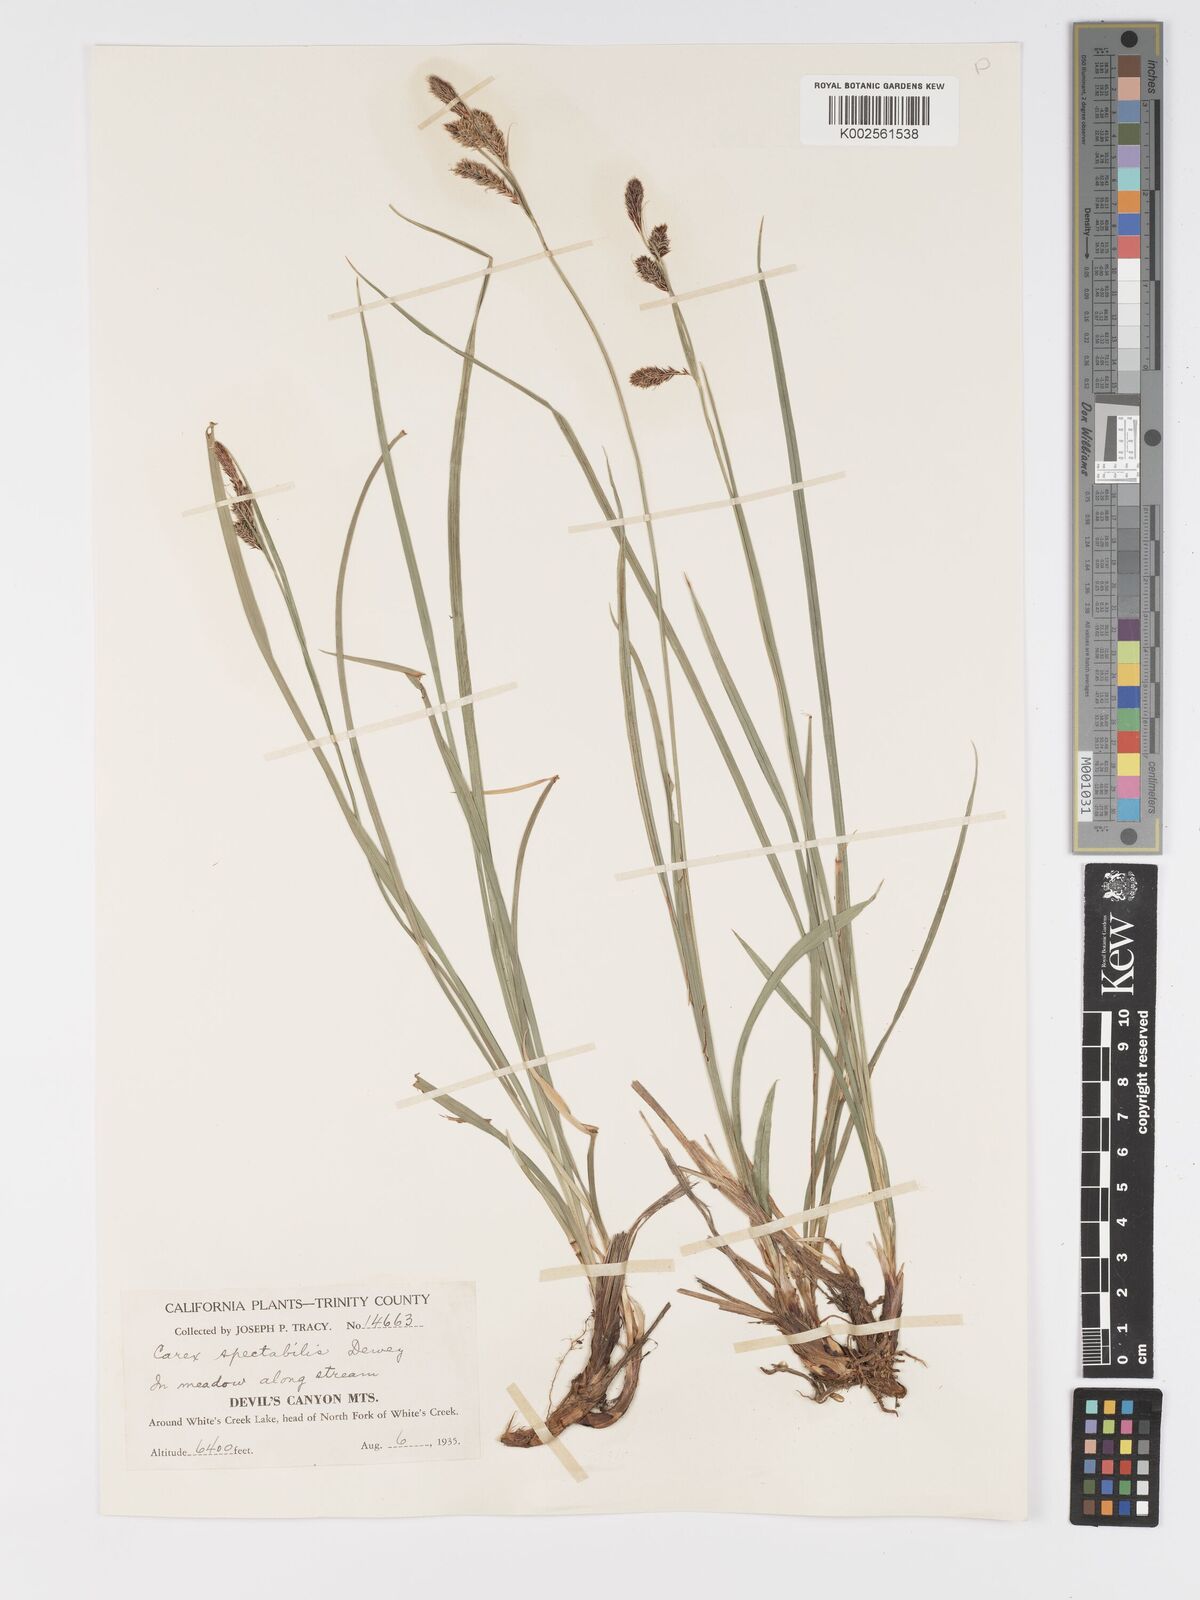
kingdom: Plantae
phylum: Tracheophyta
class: Liliopsida
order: Poales
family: Cyperaceae
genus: Carex
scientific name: Carex spectabilis
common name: Northwestern showy sedge
